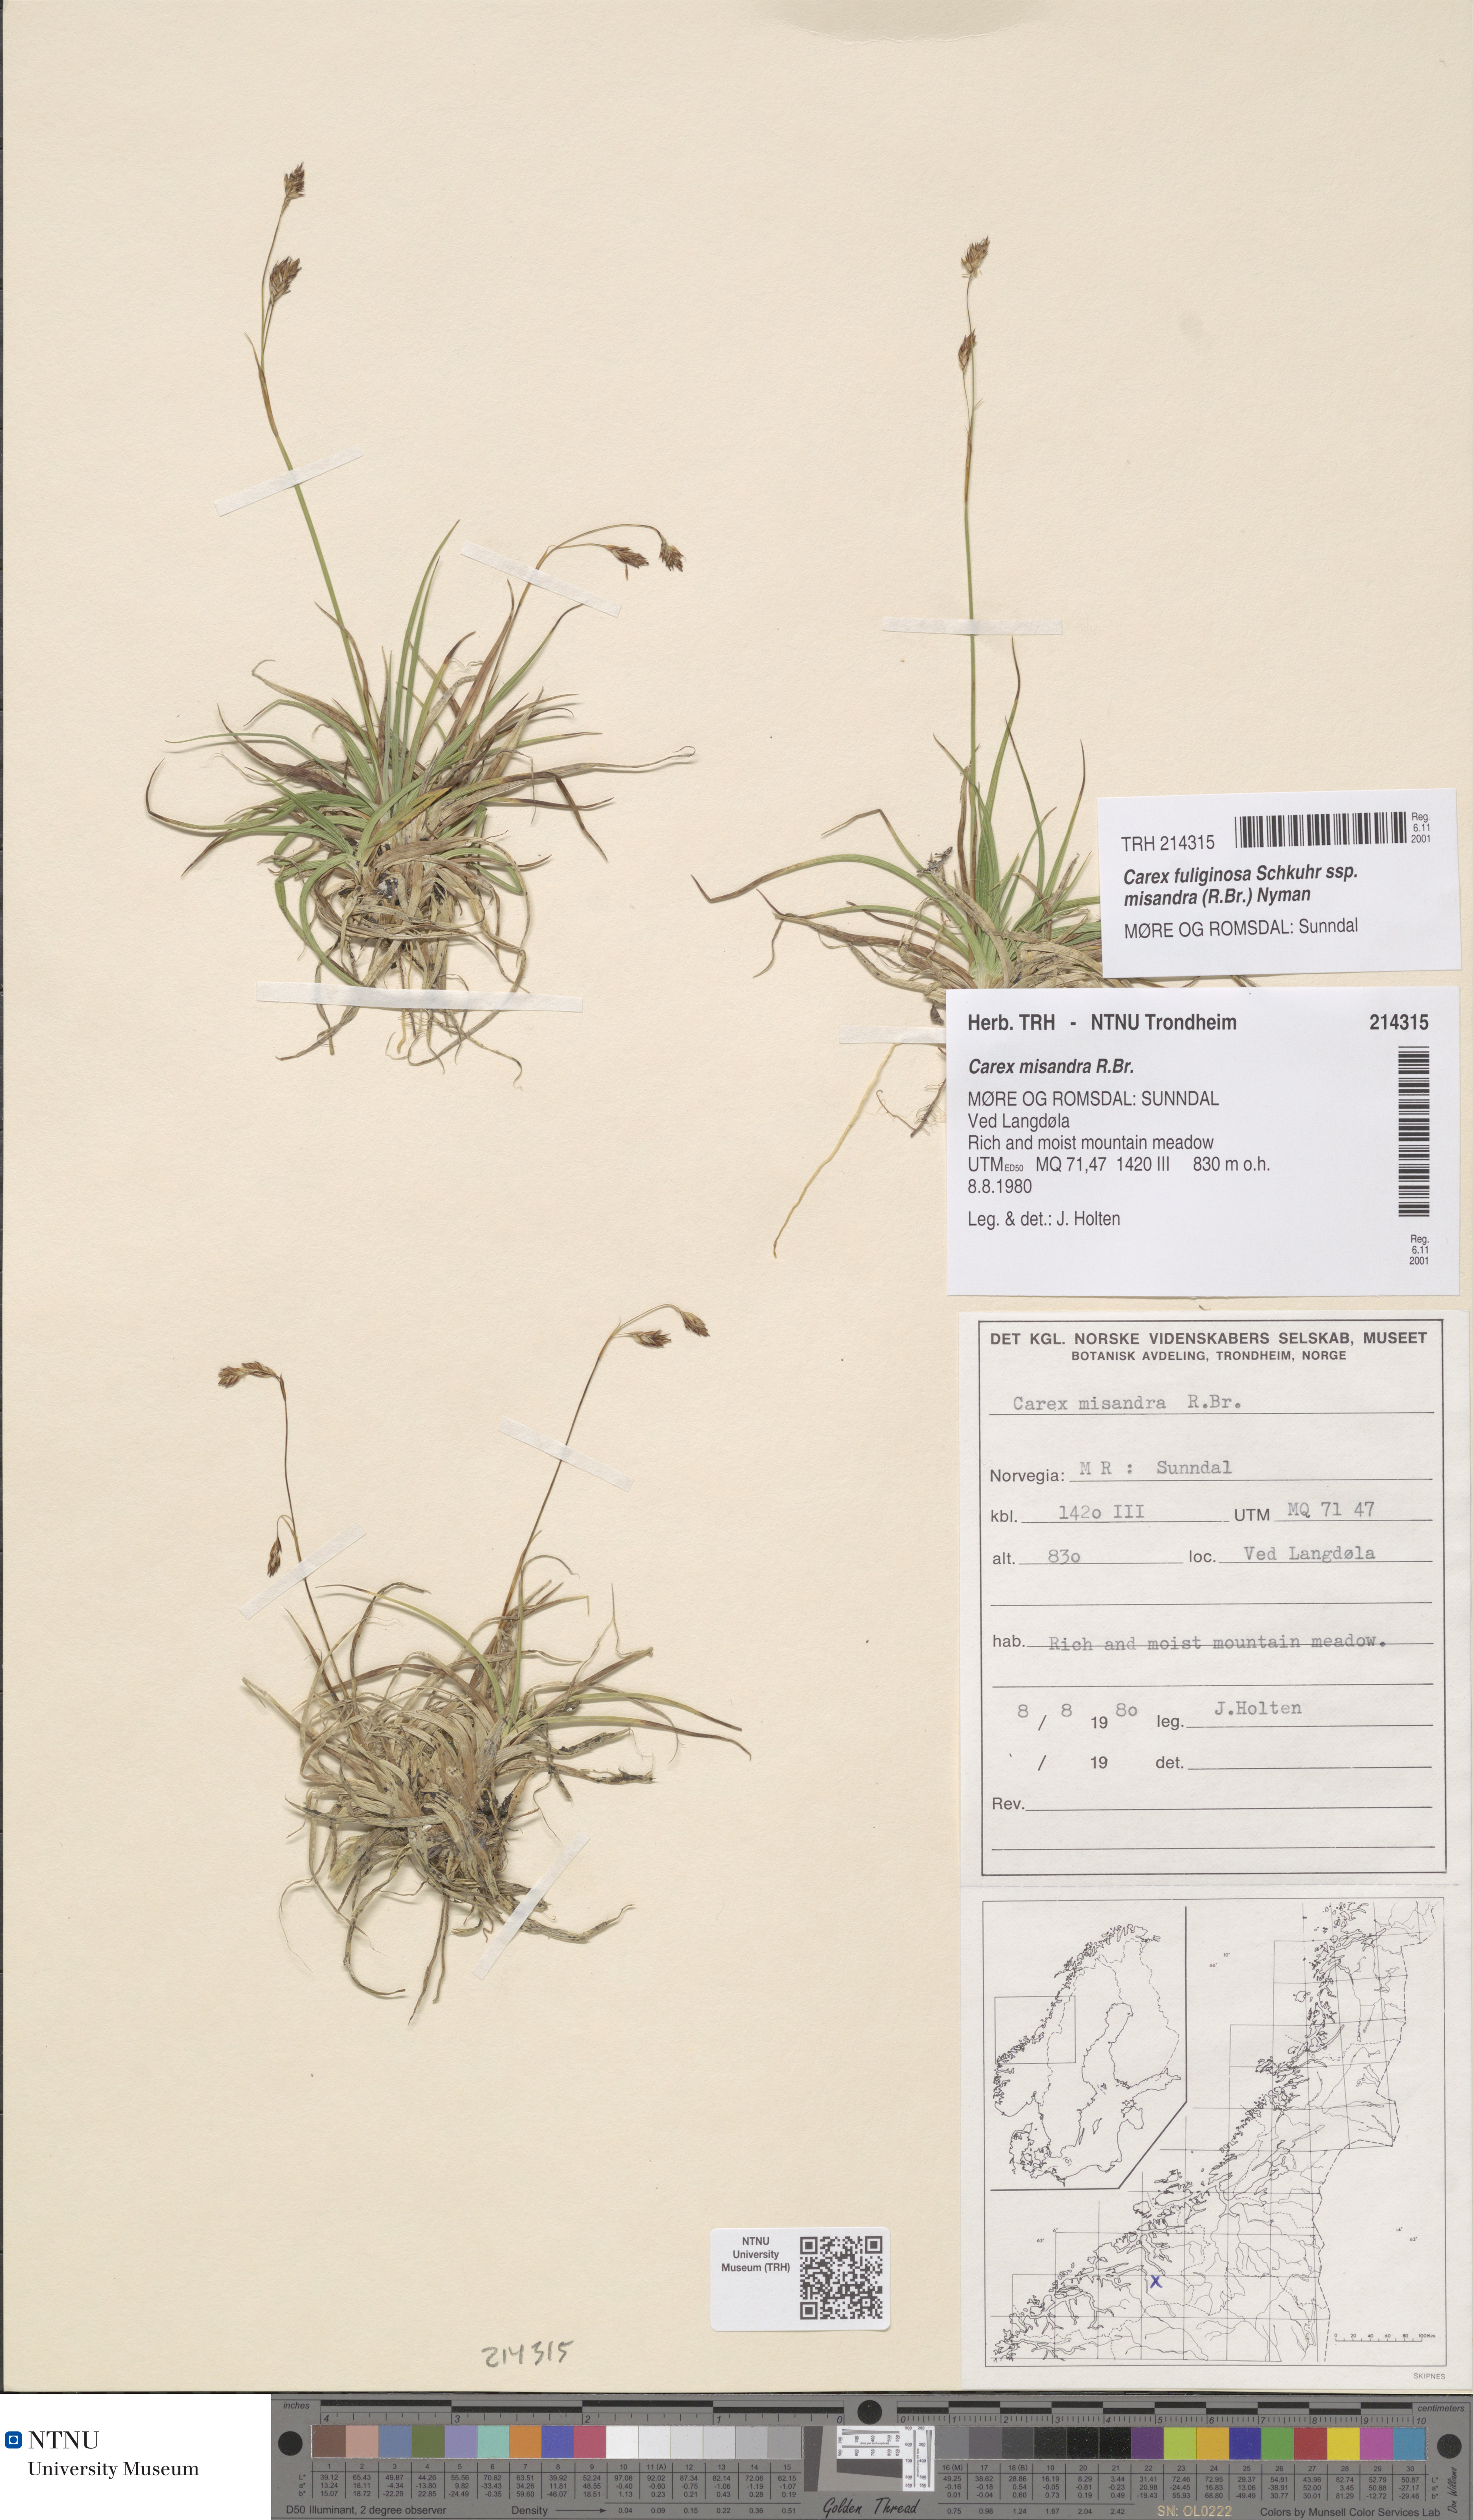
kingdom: Plantae
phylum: Tracheophyta
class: Liliopsida
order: Poales
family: Cyperaceae
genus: Carex
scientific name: Carex fuliginosa
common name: Few-flowered sedge
